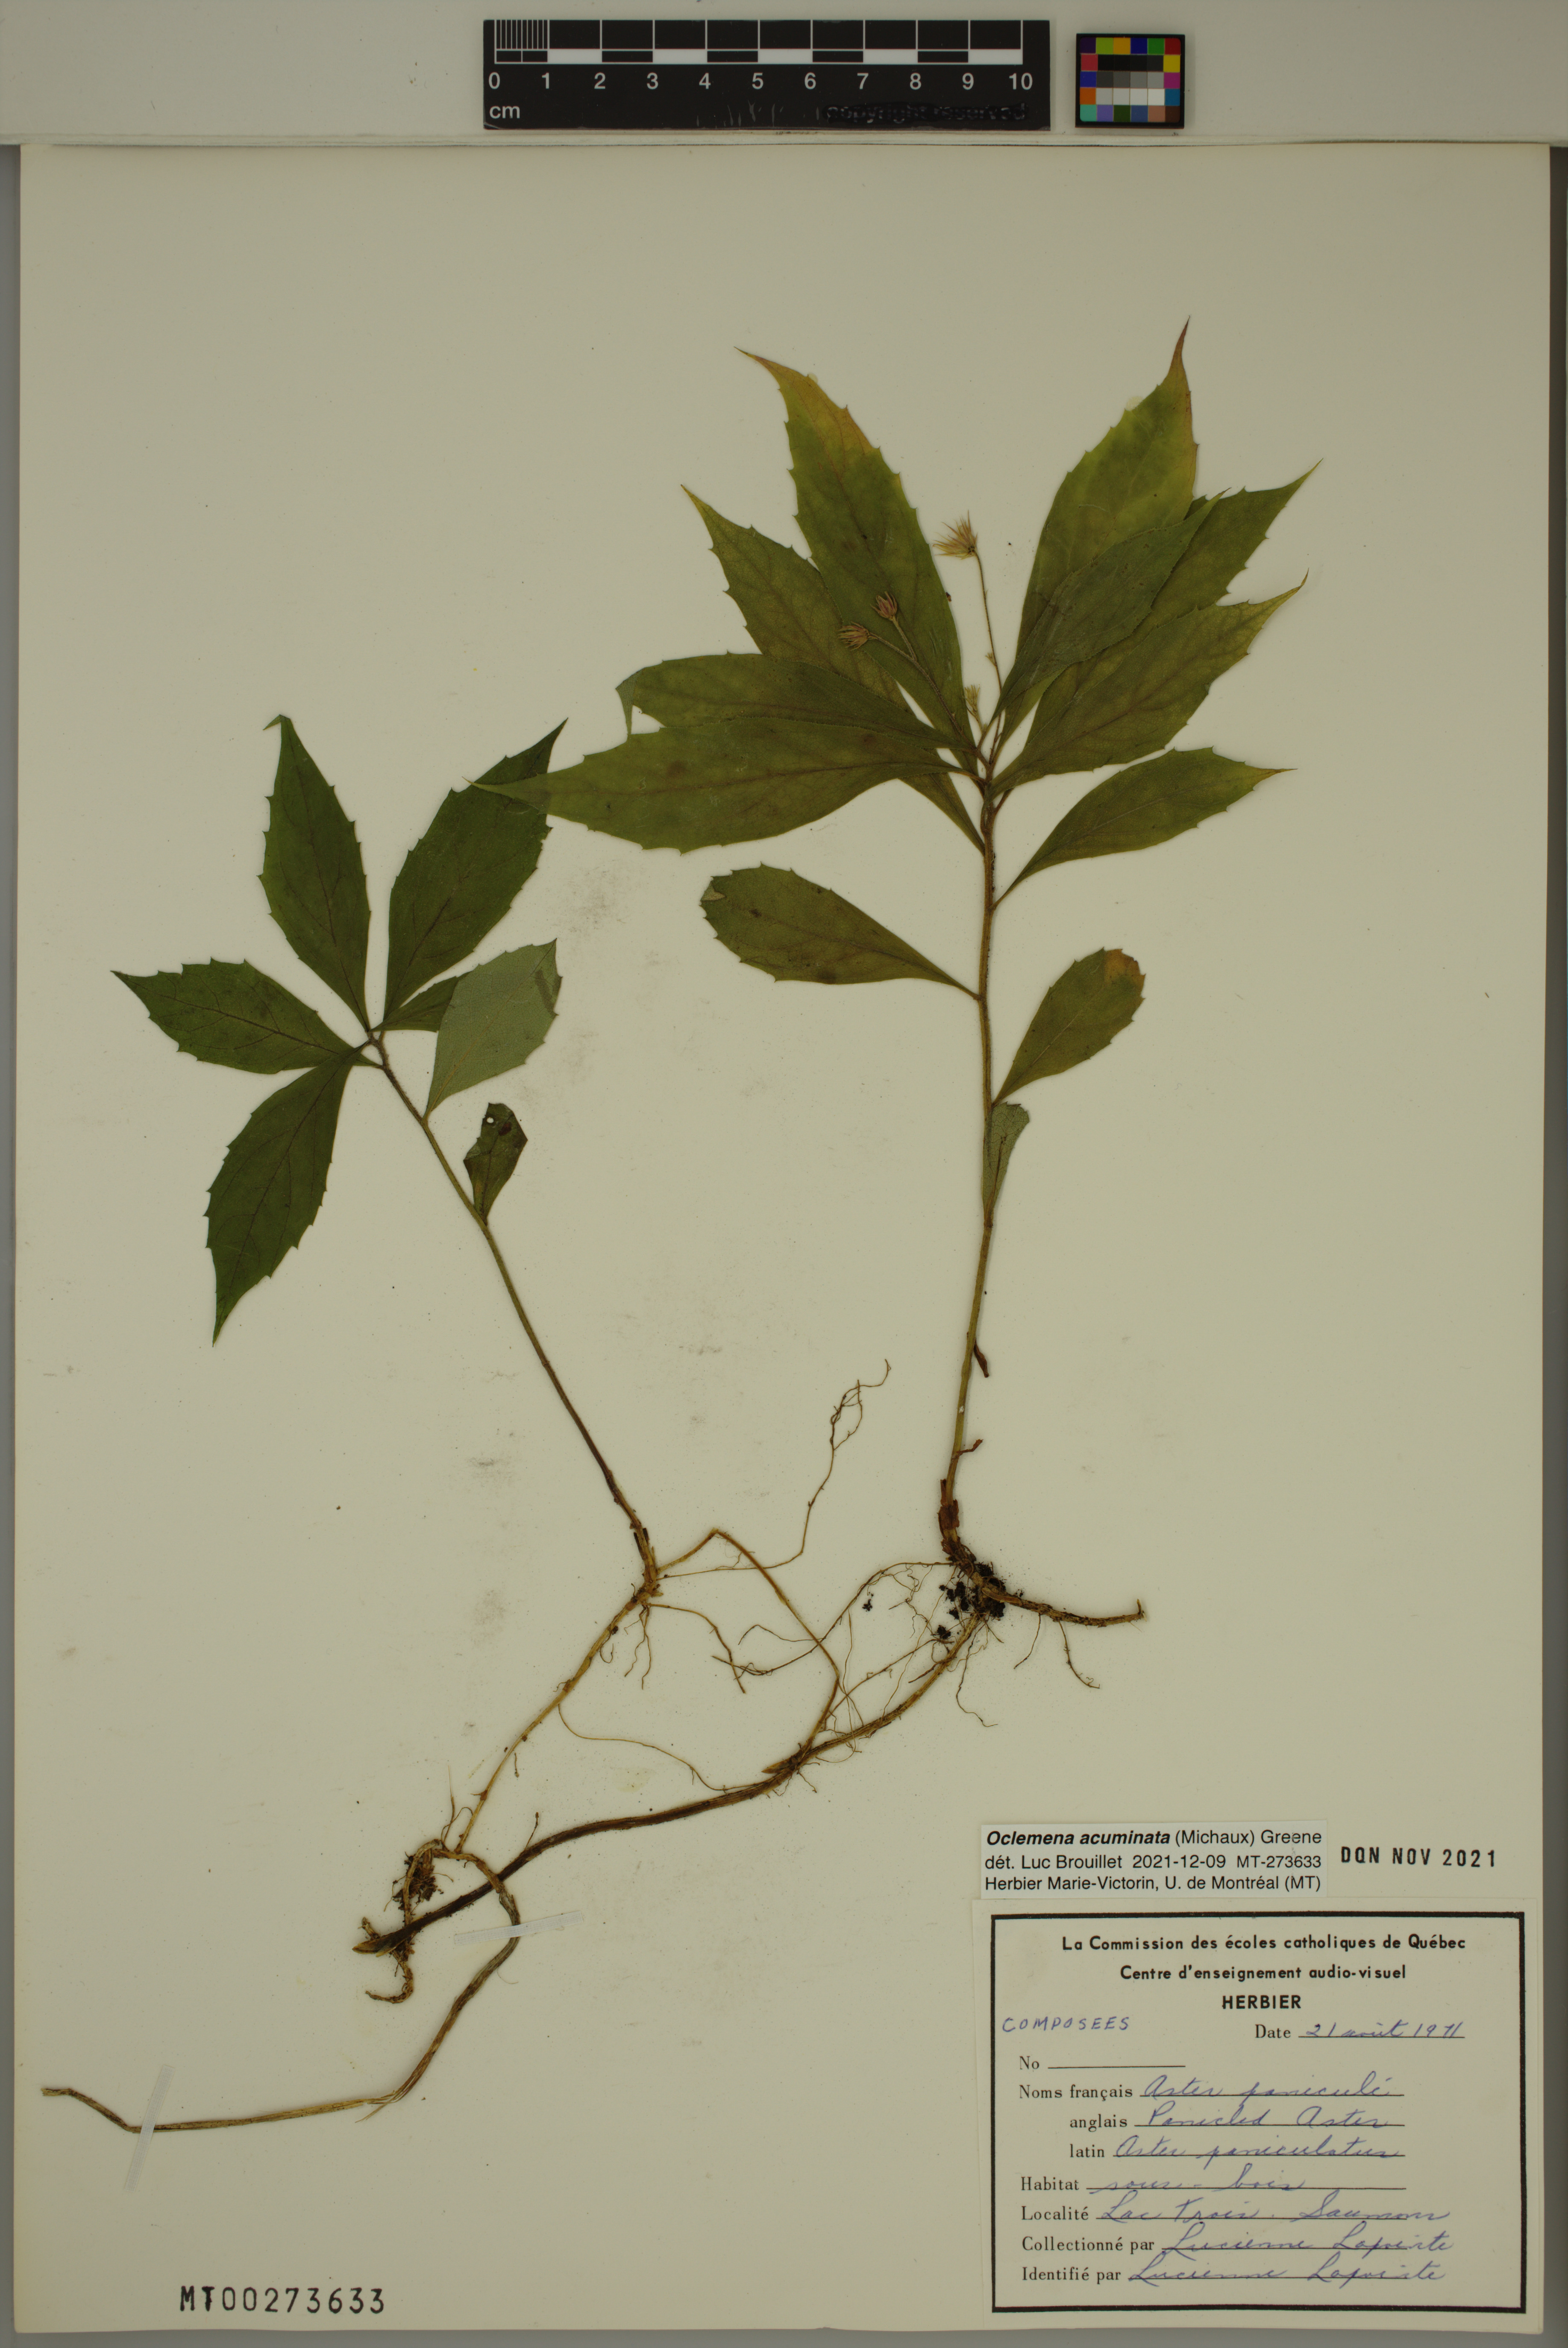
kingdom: Plantae
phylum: Tracheophyta
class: Magnoliopsida
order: Asterales
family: Asteraceae
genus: Oclemena
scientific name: Oclemena acuminata
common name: Mountain aster
